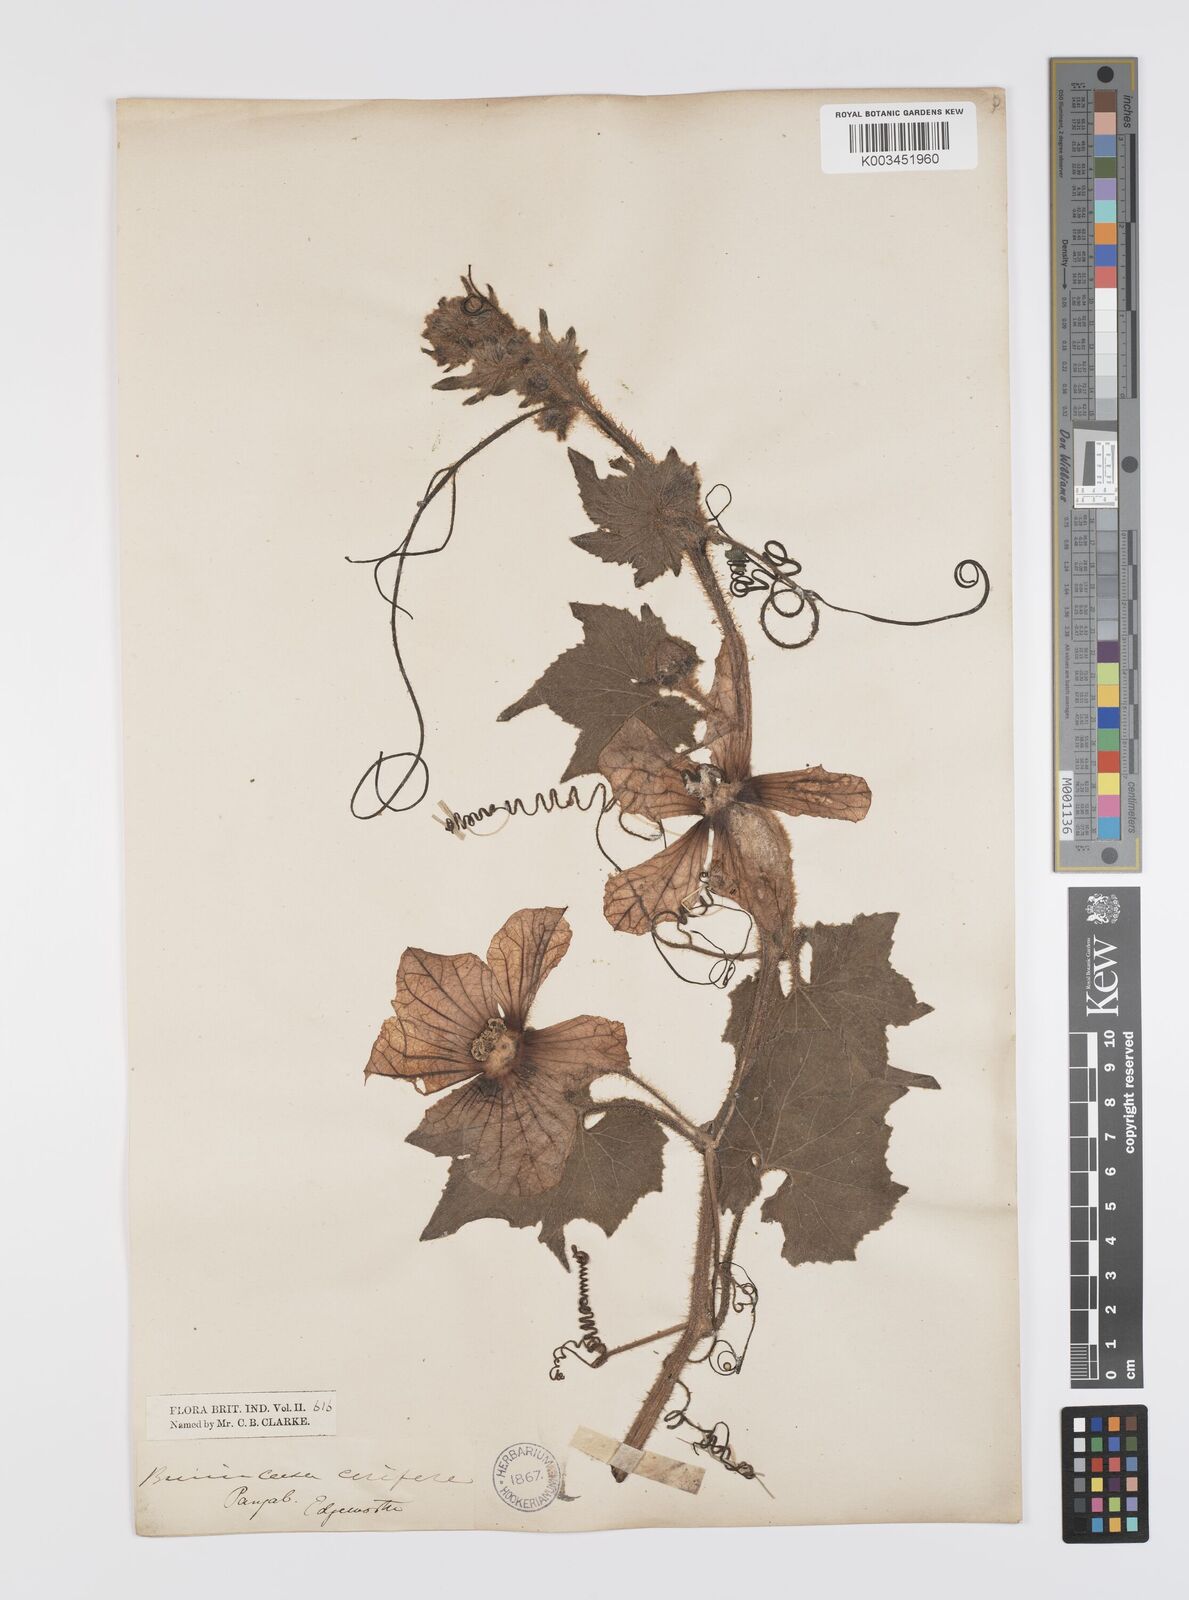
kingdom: Plantae
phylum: Tracheophyta
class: Magnoliopsida
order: Cucurbitales
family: Cucurbitaceae
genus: Benincasa
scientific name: Benincasa hispida
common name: Chinese-watermelon
